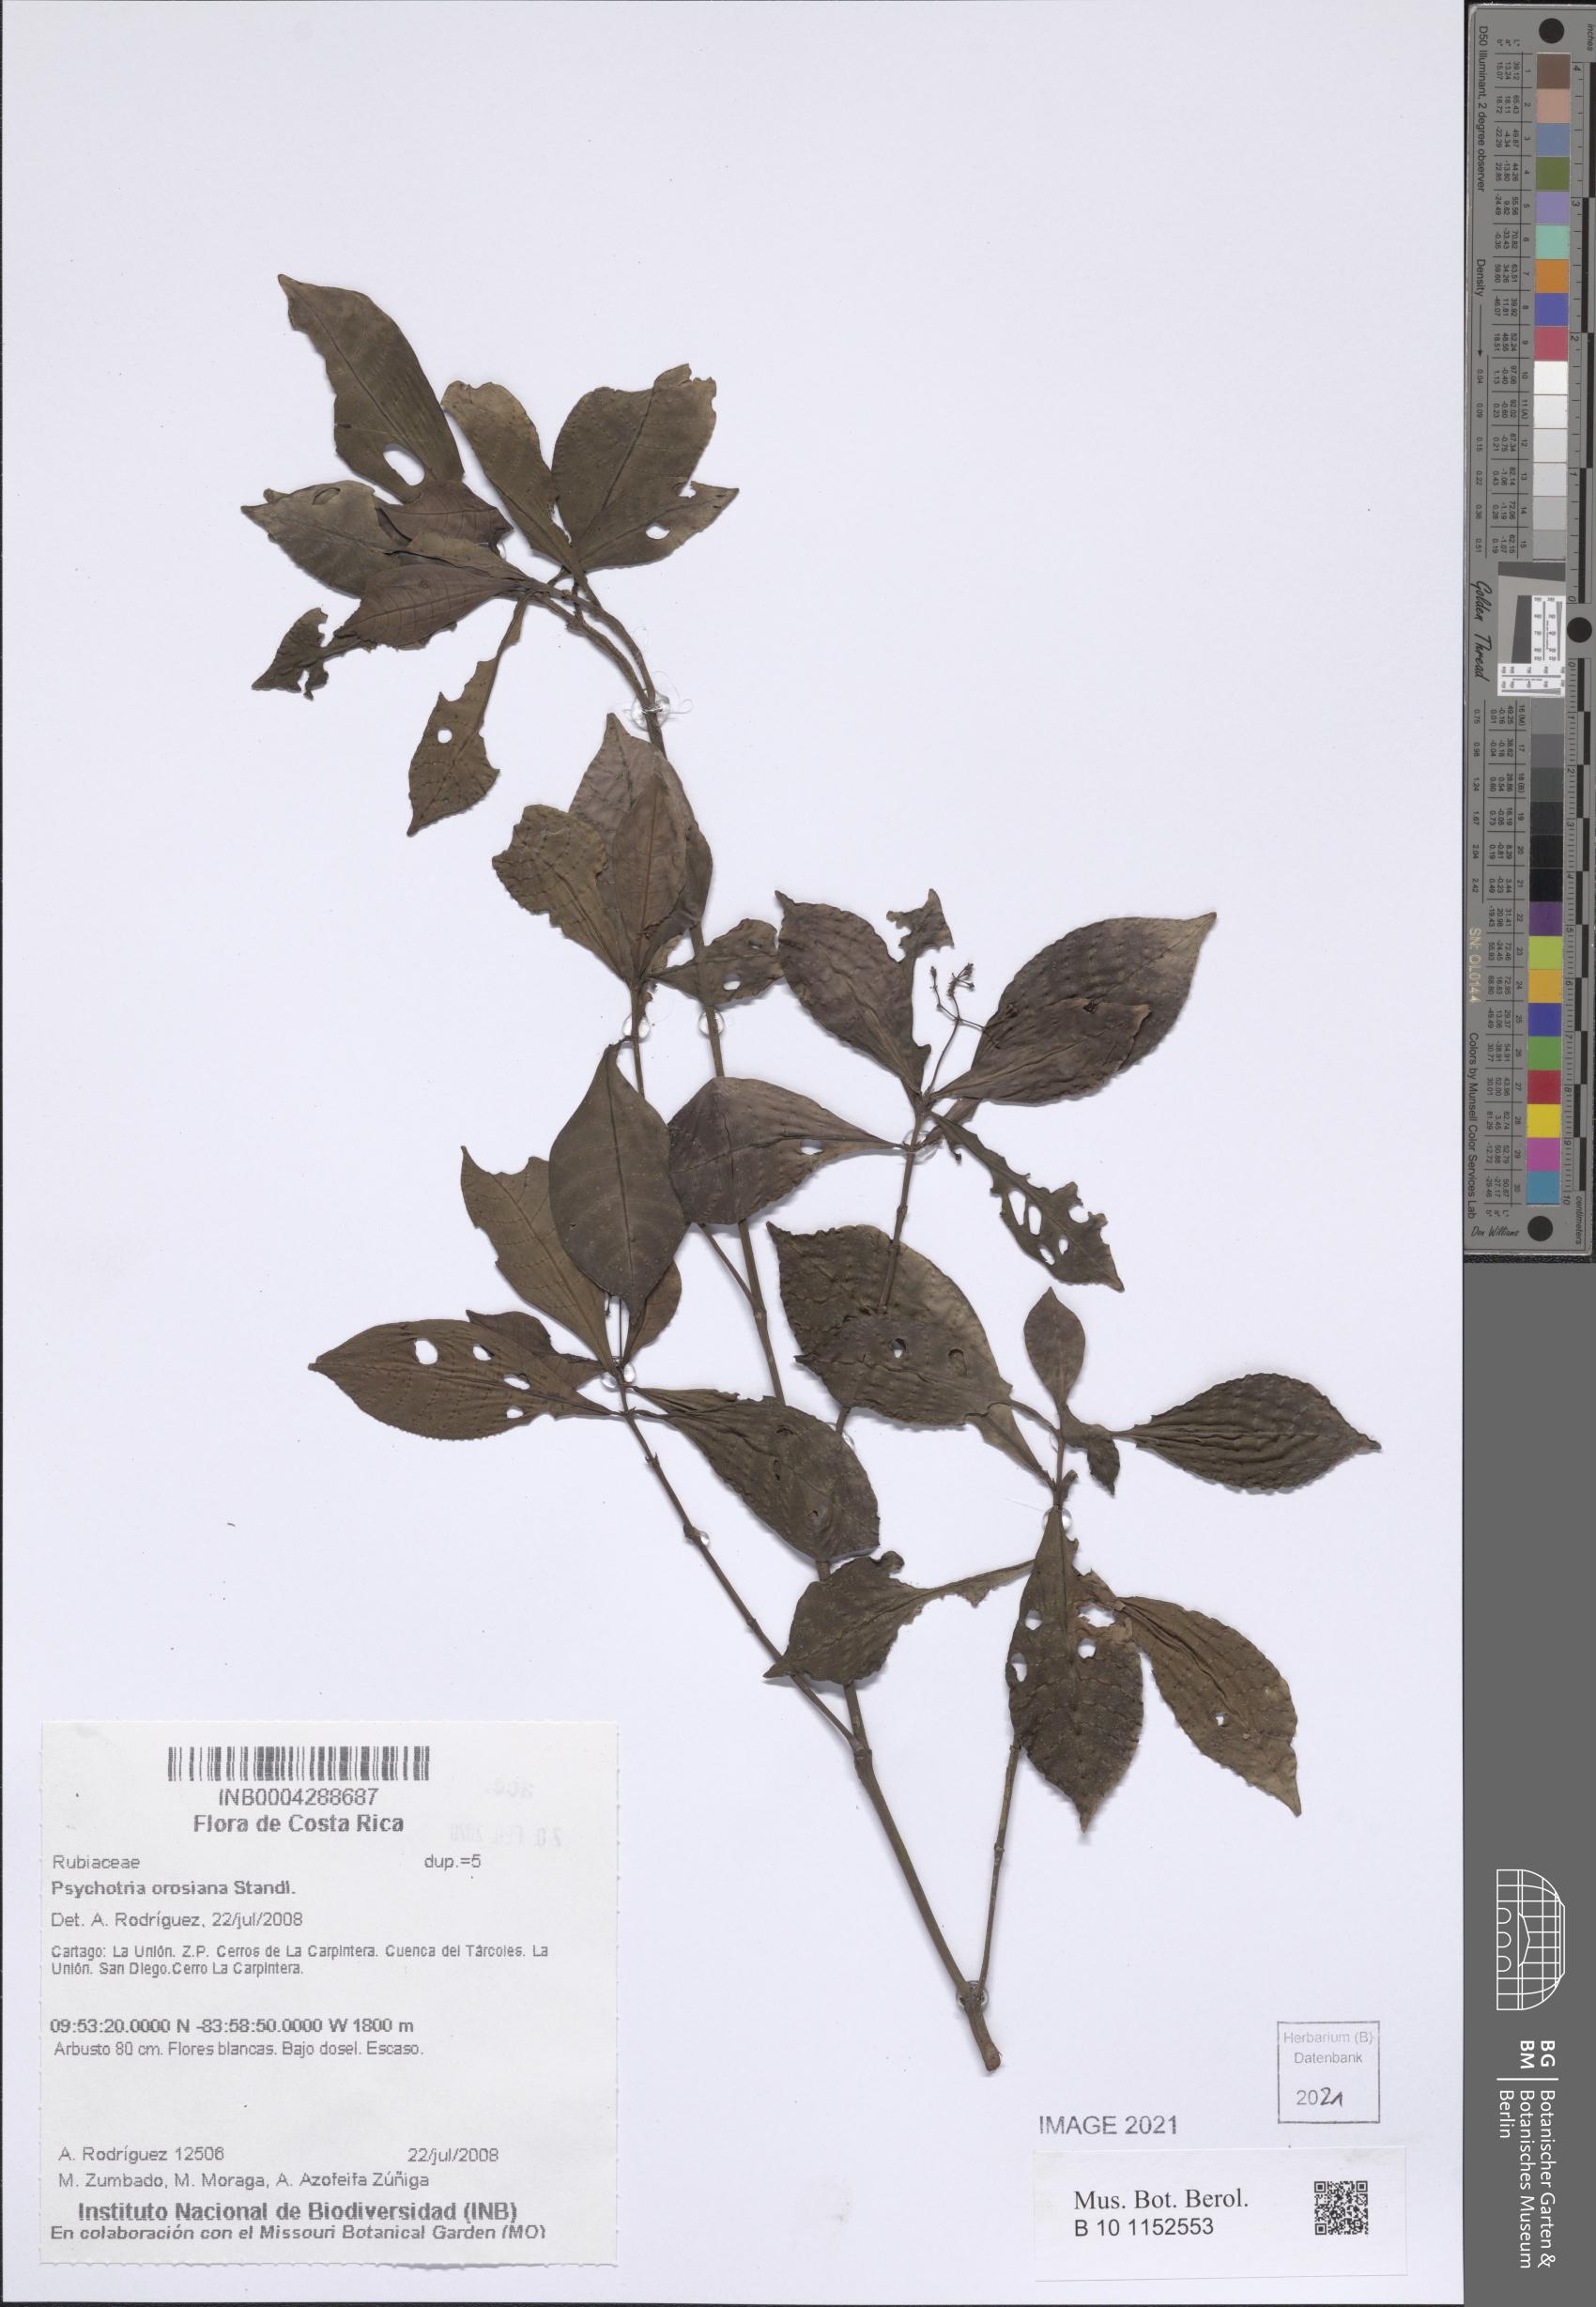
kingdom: Plantae
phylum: Tracheophyta
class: Magnoliopsida
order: Gentianales
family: Rubiaceae
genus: Psychotria
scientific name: Psychotria orosiana
